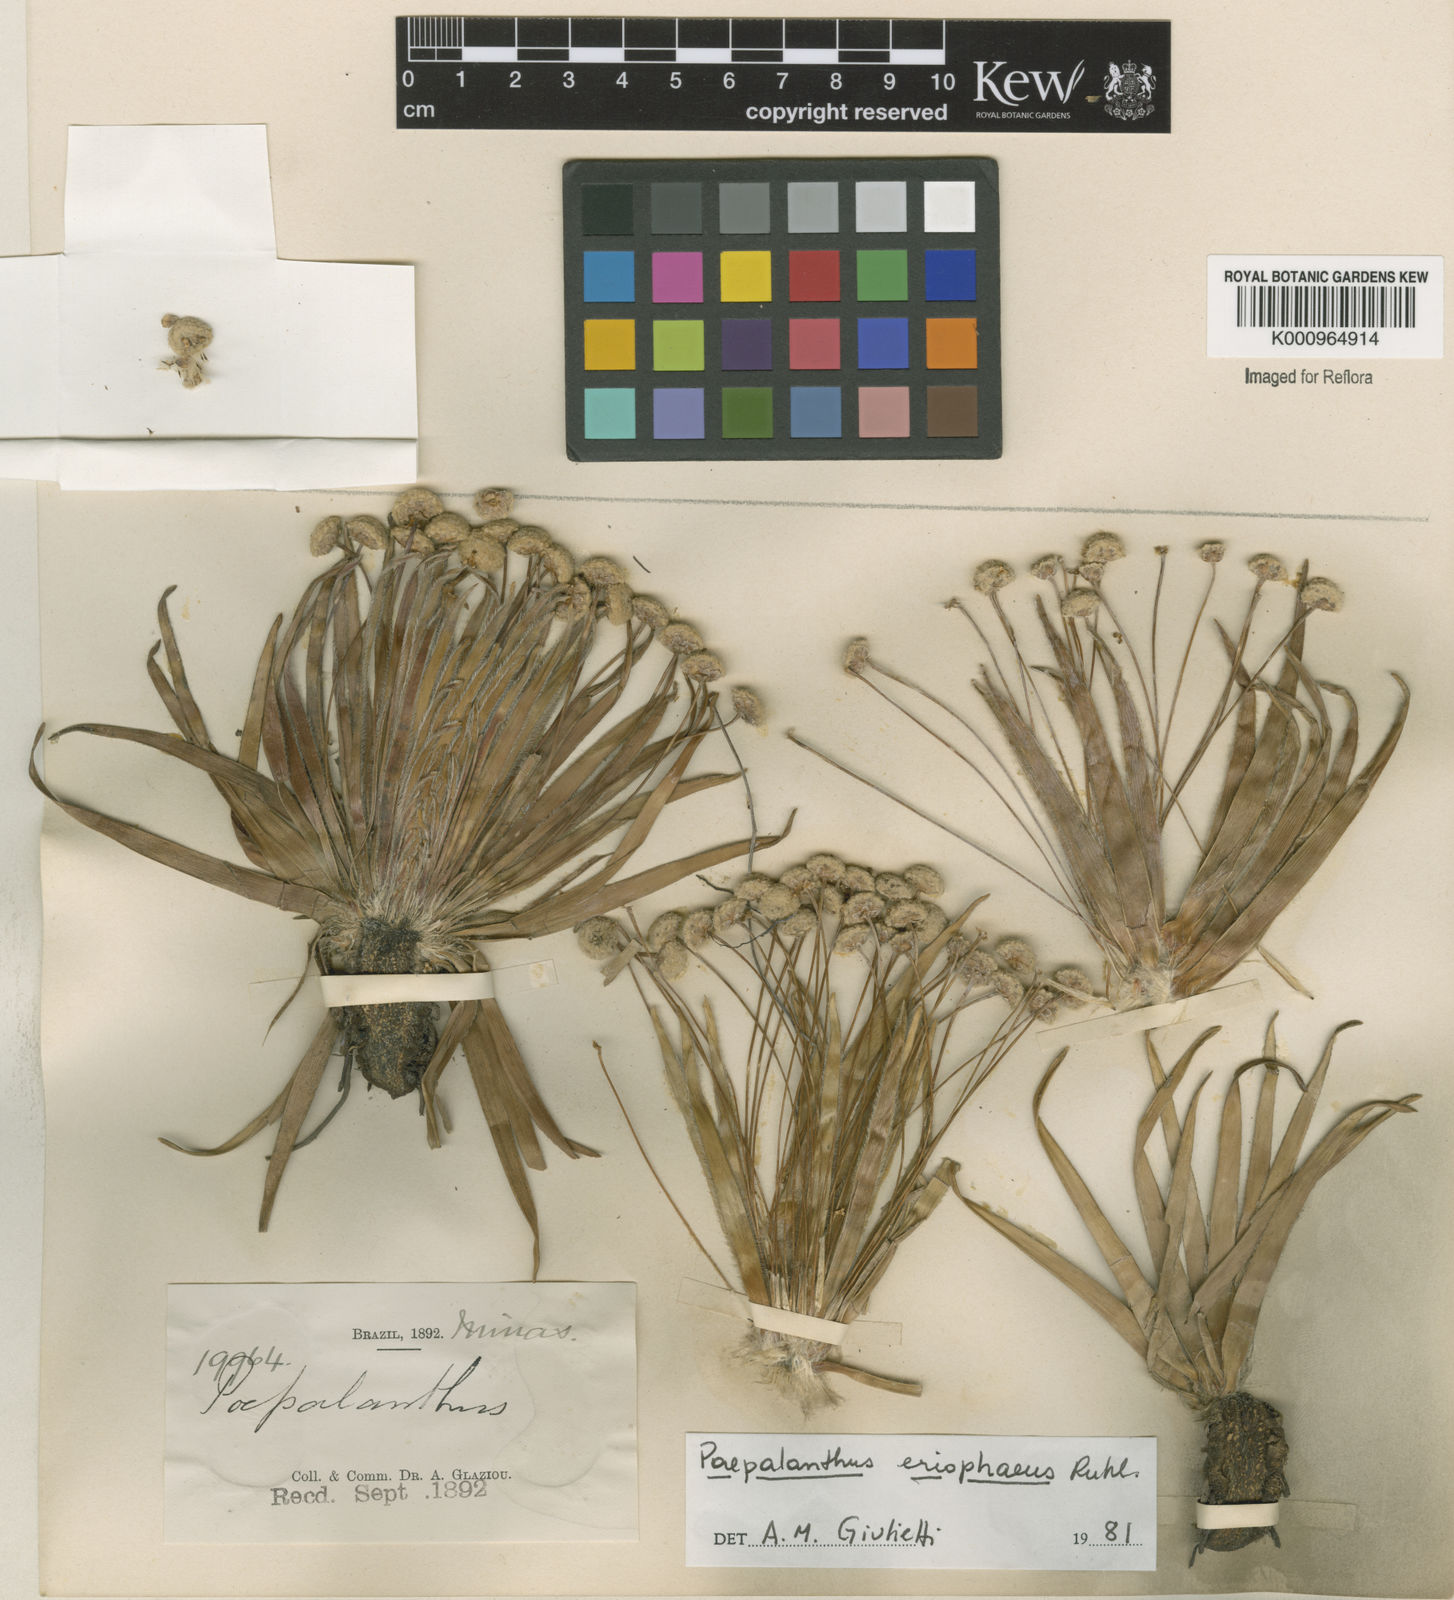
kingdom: Plantae
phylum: Tracheophyta
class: Liliopsida
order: Poales
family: Eriocaulaceae
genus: Paepalanthus
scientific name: Paepalanthus eriophaeus
